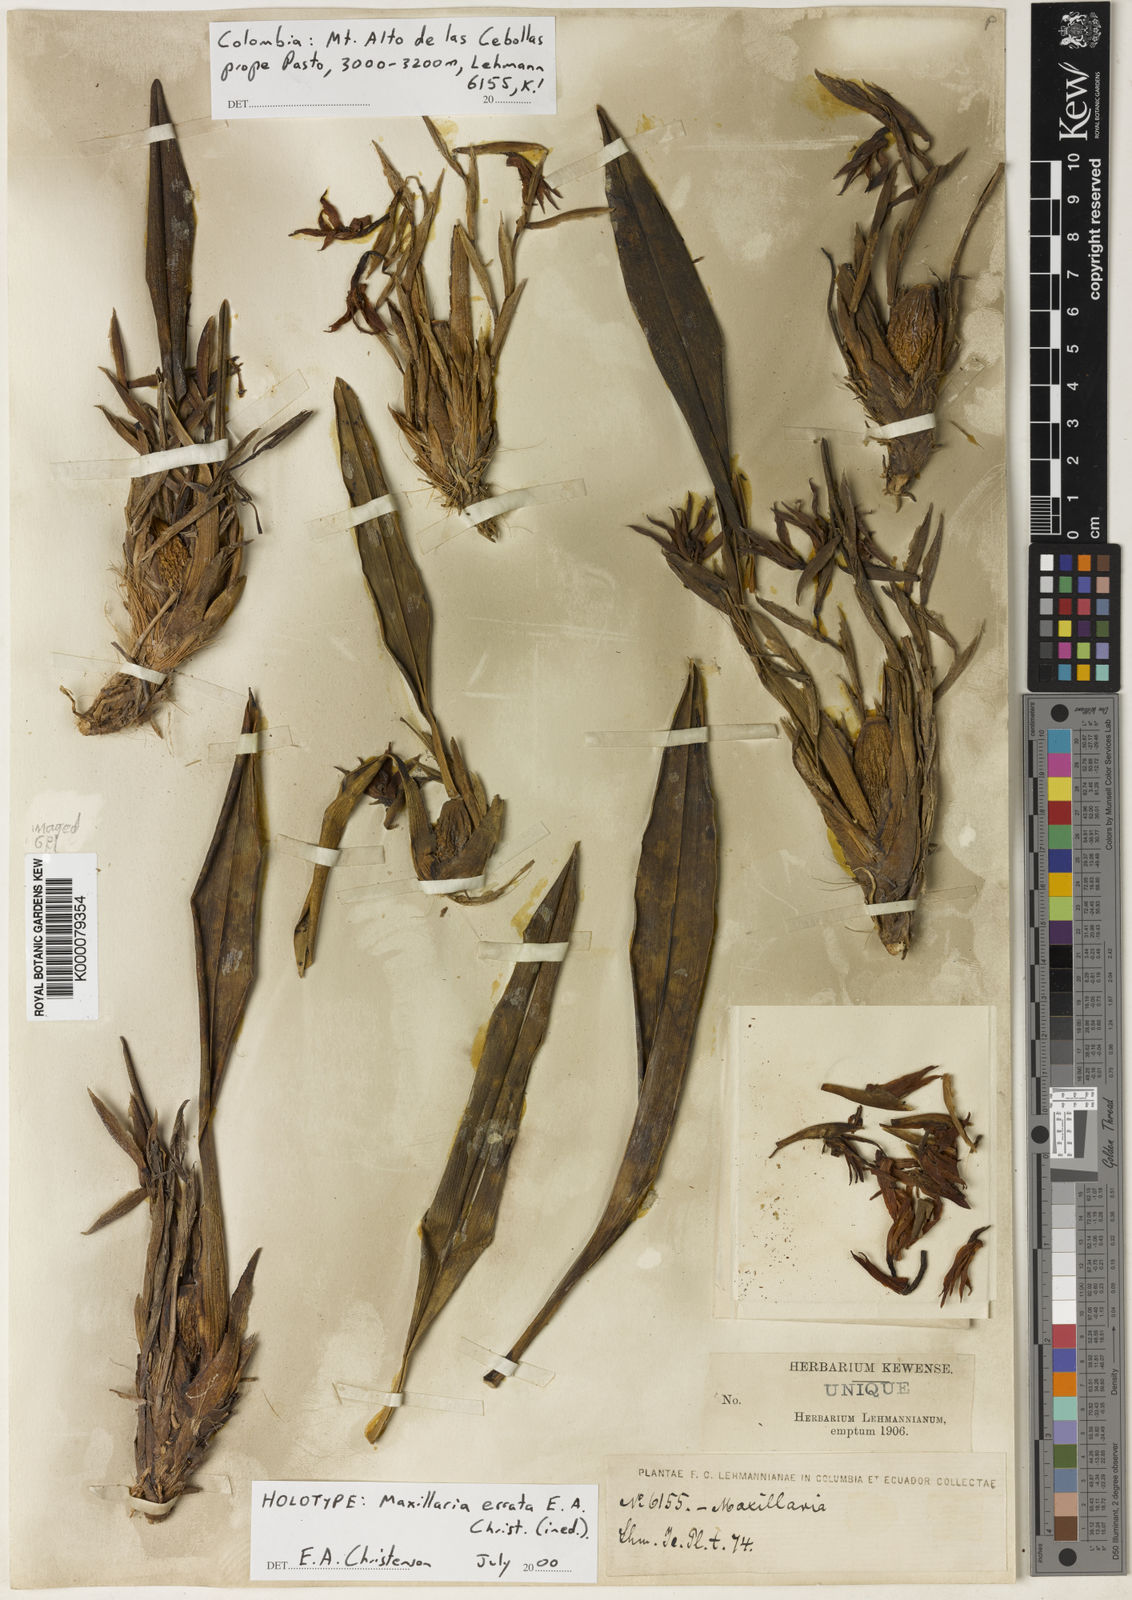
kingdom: Plantae
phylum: Tracheophyta
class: Liliopsida
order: Asparagales
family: Orchidaceae
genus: Maxillaria
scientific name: Maxillaria errata
